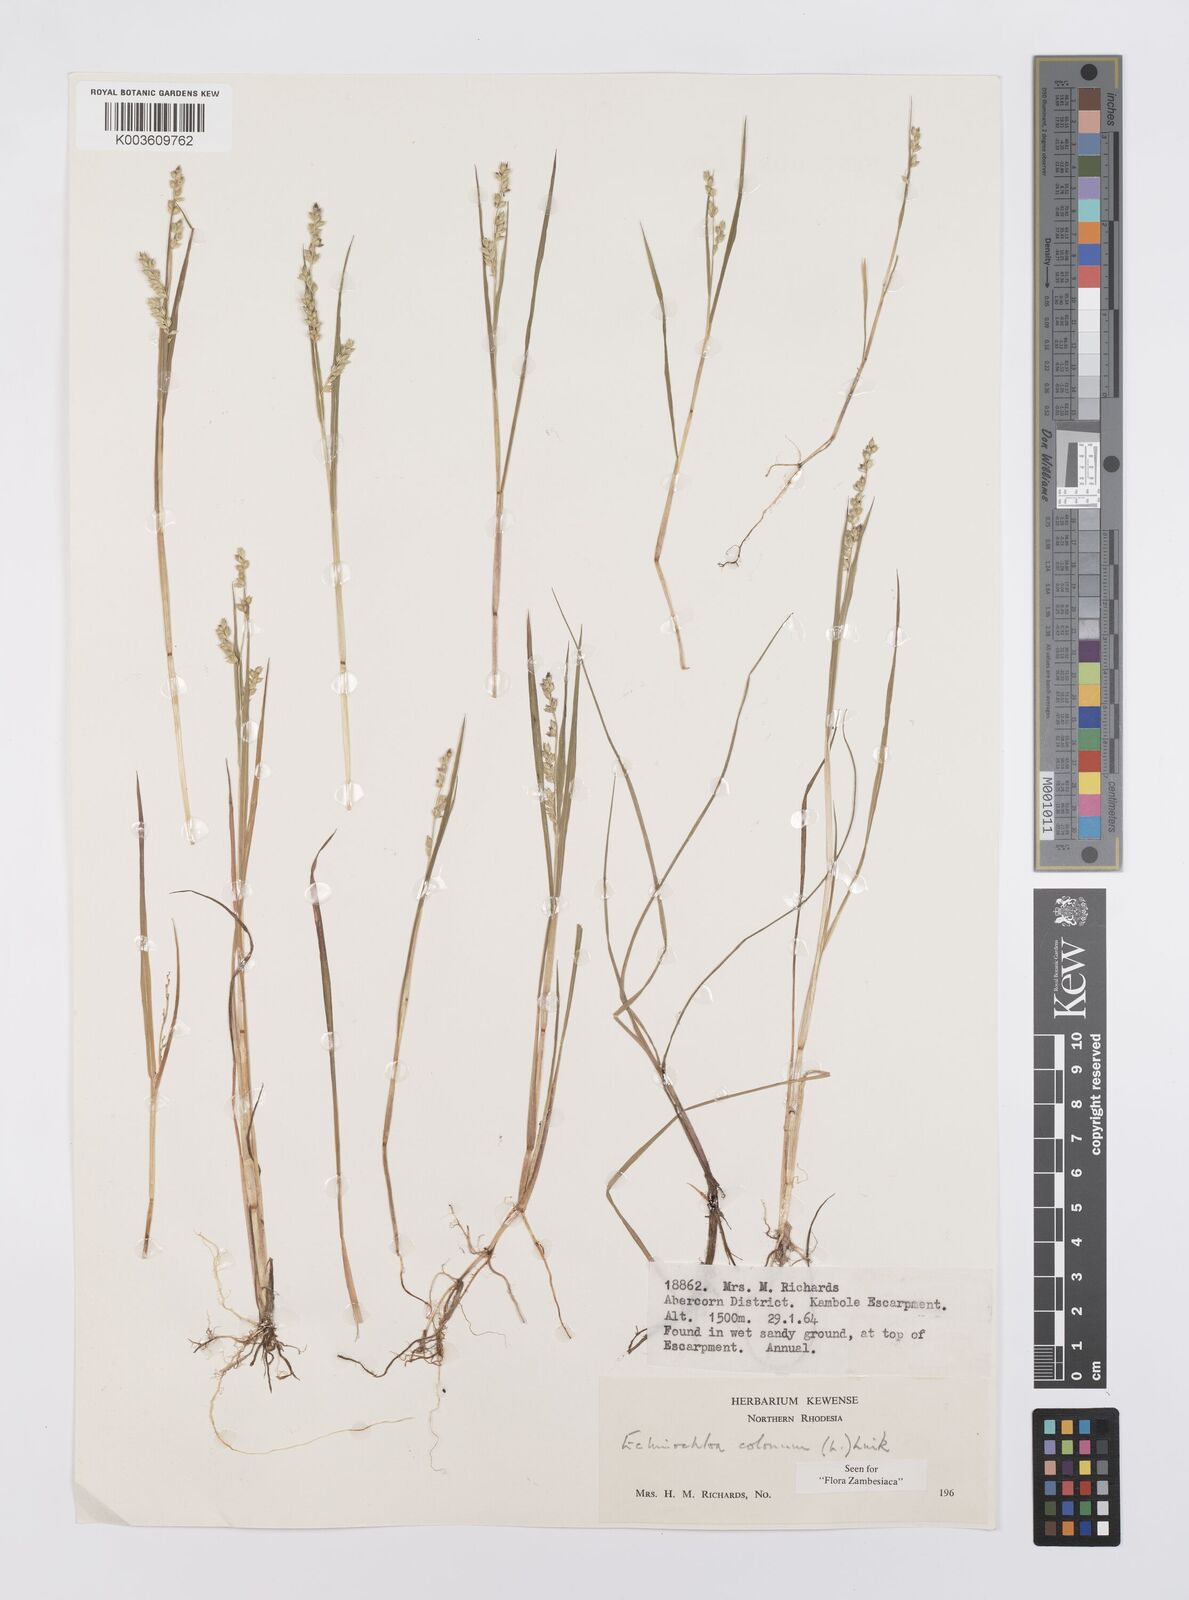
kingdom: Plantae
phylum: Tracheophyta
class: Liliopsida
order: Poales
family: Poaceae
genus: Echinochloa
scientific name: Echinochloa colonum
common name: Jungle rice
